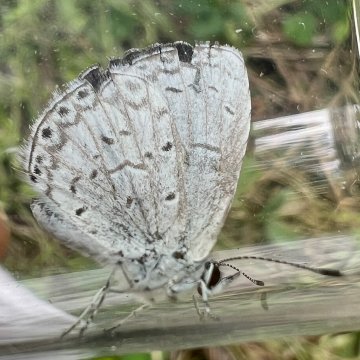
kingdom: Animalia
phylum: Arthropoda
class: Insecta
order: Lepidoptera
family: Lycaenidae
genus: Cyaniris
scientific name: Cyaniris neglecta
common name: Summer Azure
